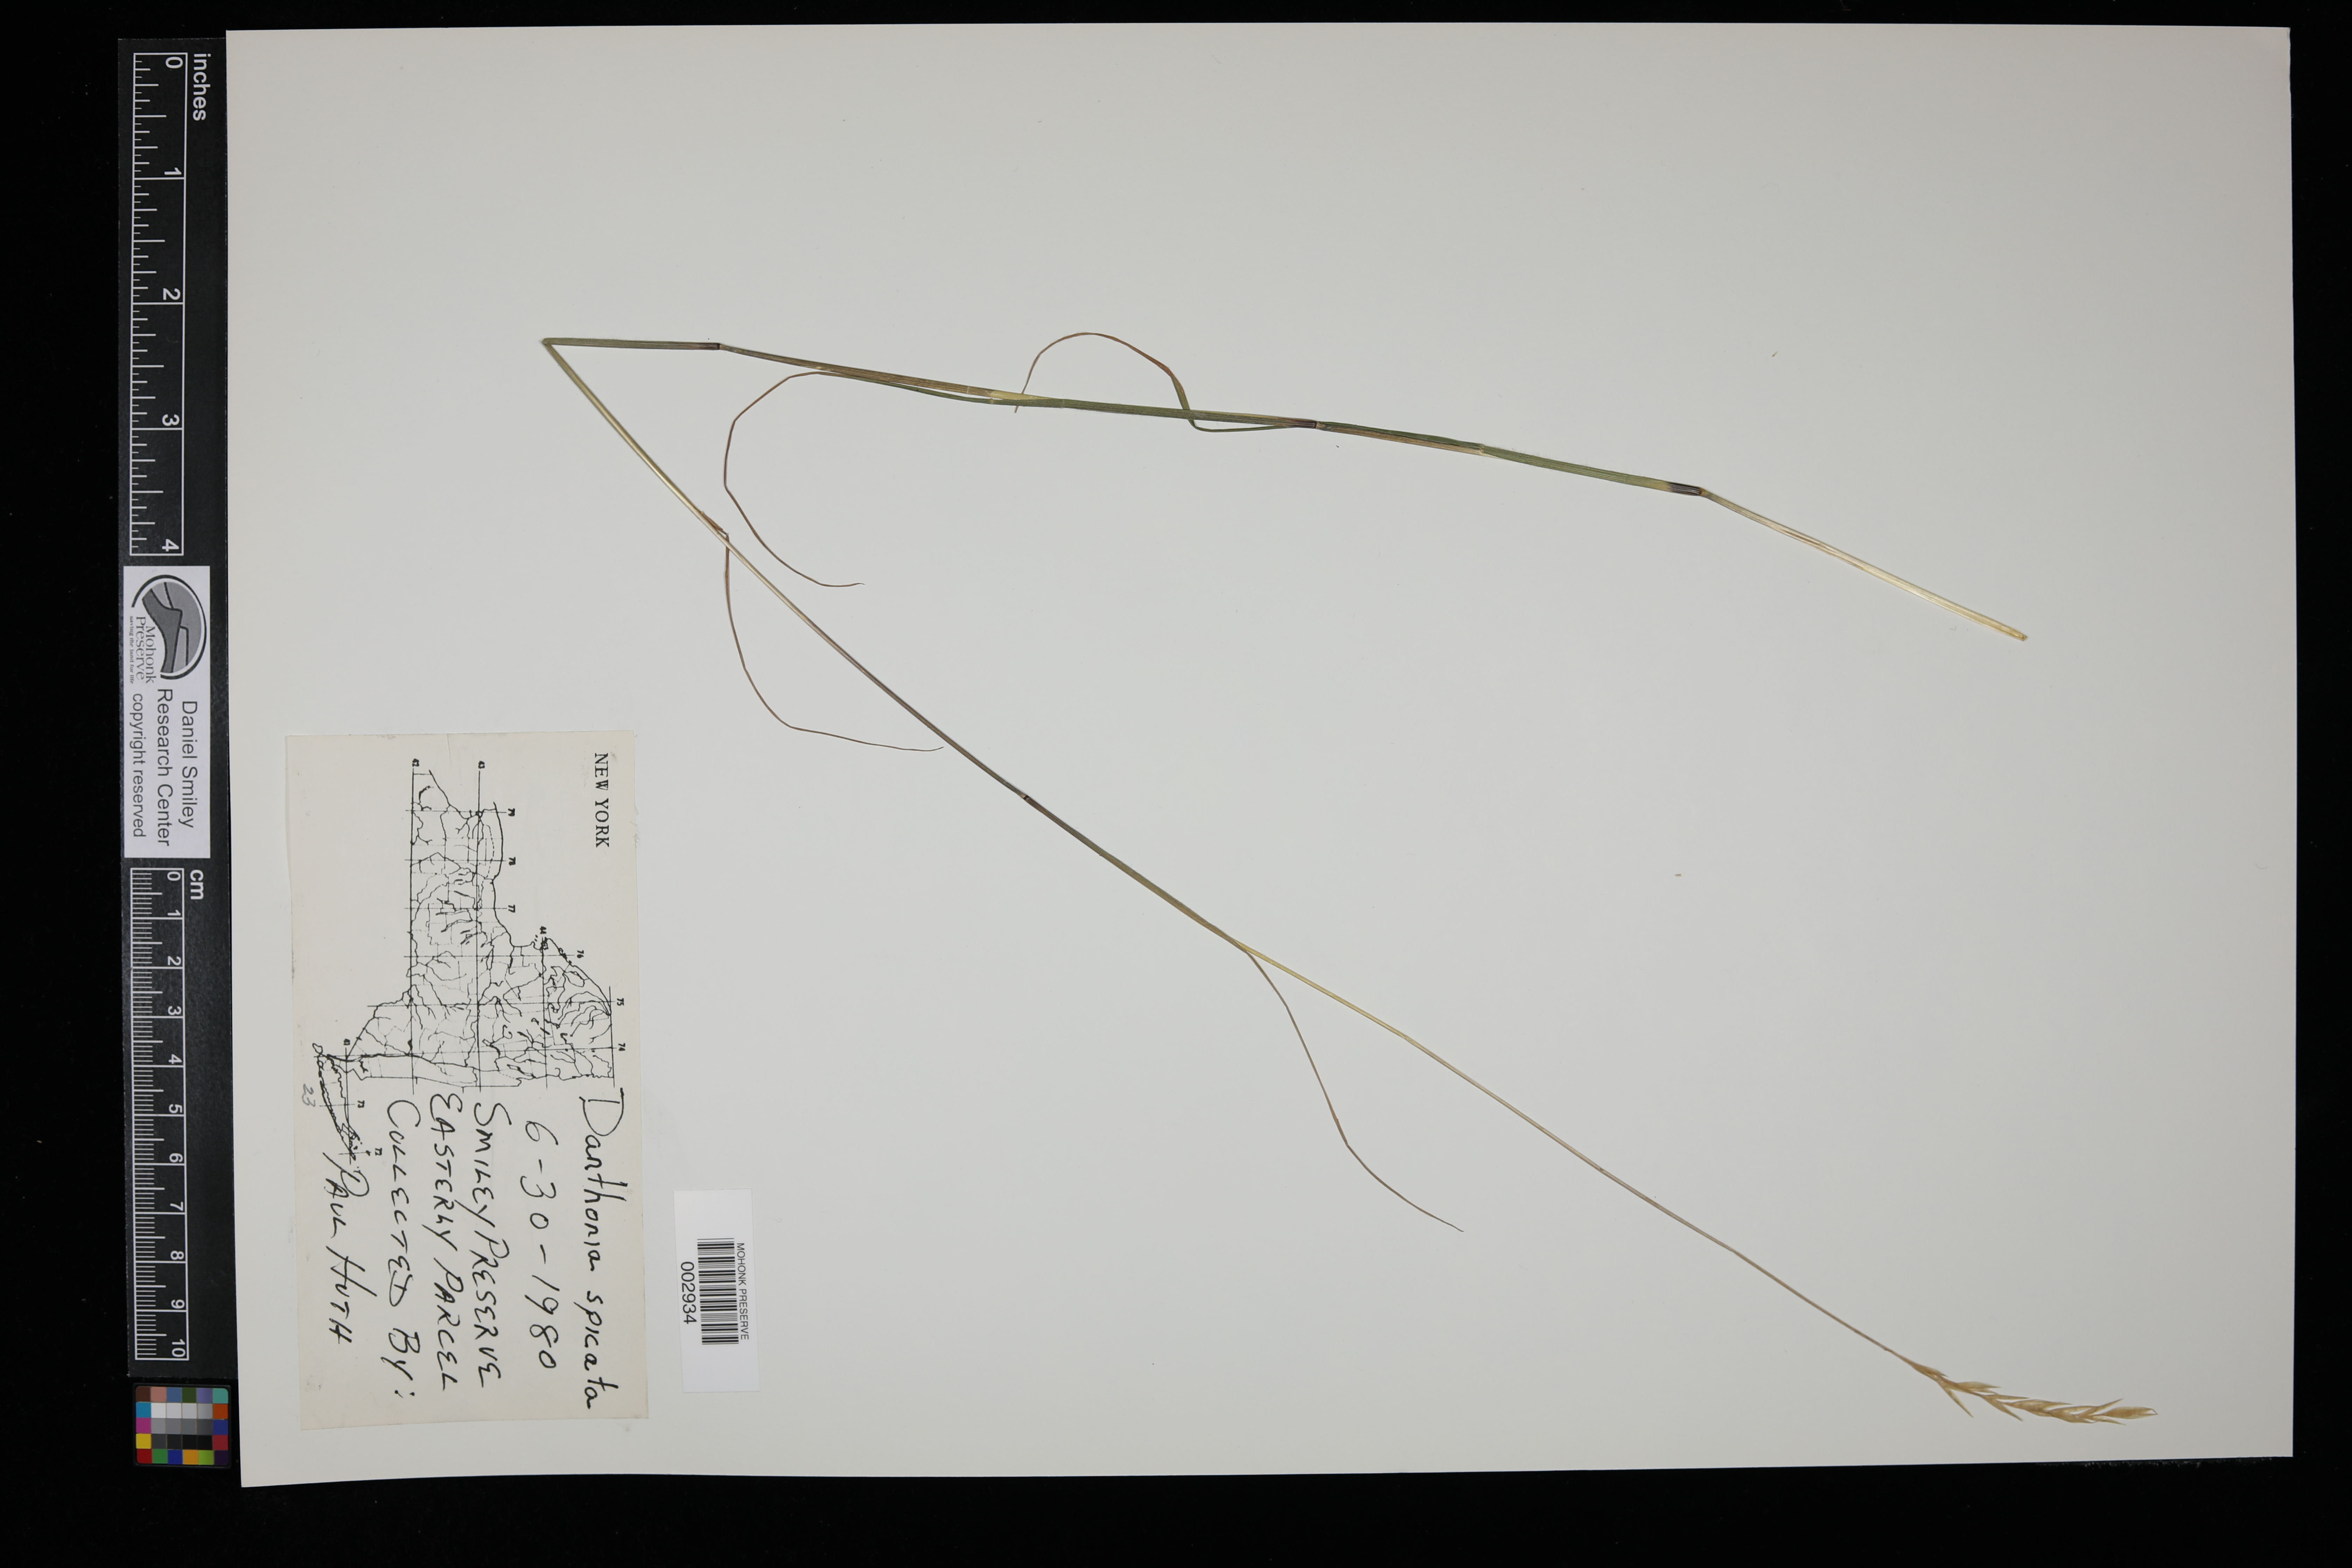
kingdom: Plantae
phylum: Tracheophyta
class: Liliopsida
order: Poales
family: Poaceae
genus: Danthonia
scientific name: Danthonia spicata
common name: Common wild oatgrass
